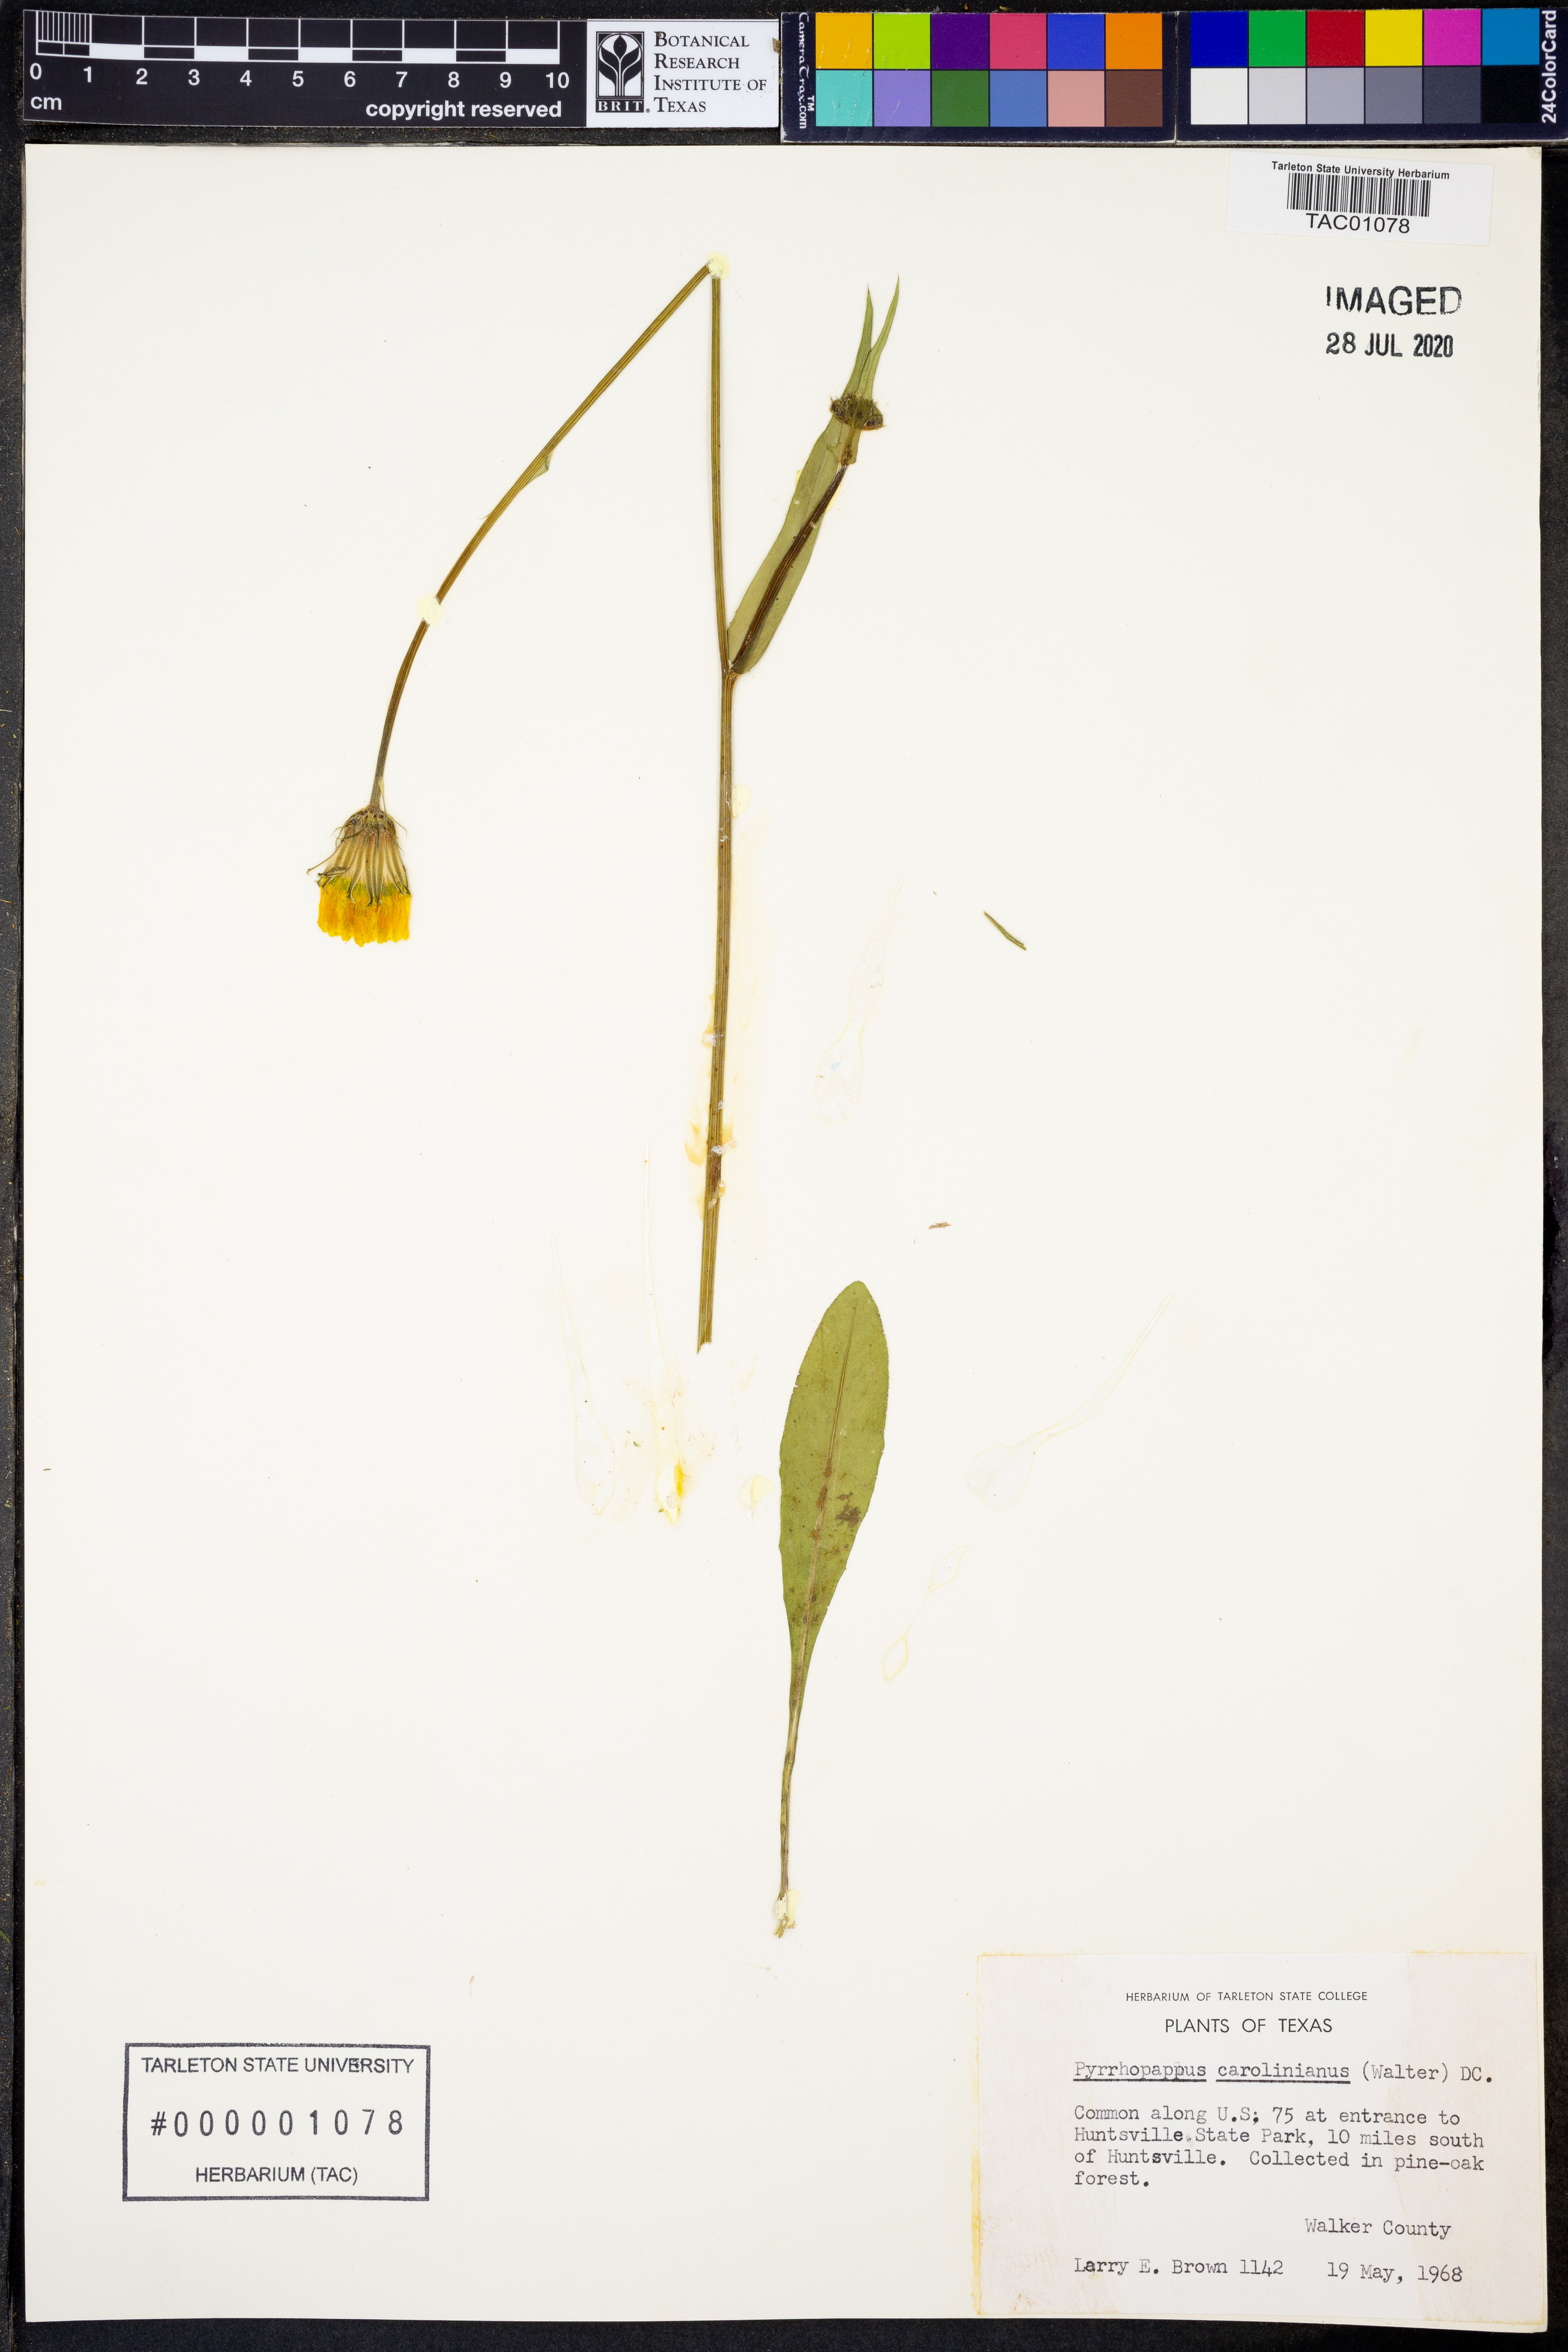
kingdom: Plantae
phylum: Tracheophyta
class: Magnoliopsida
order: Asterales
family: Asteraceae
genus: Pyrrhopappus
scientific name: Pyrrhopappus carolinianus
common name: Carolina desert-chicory
